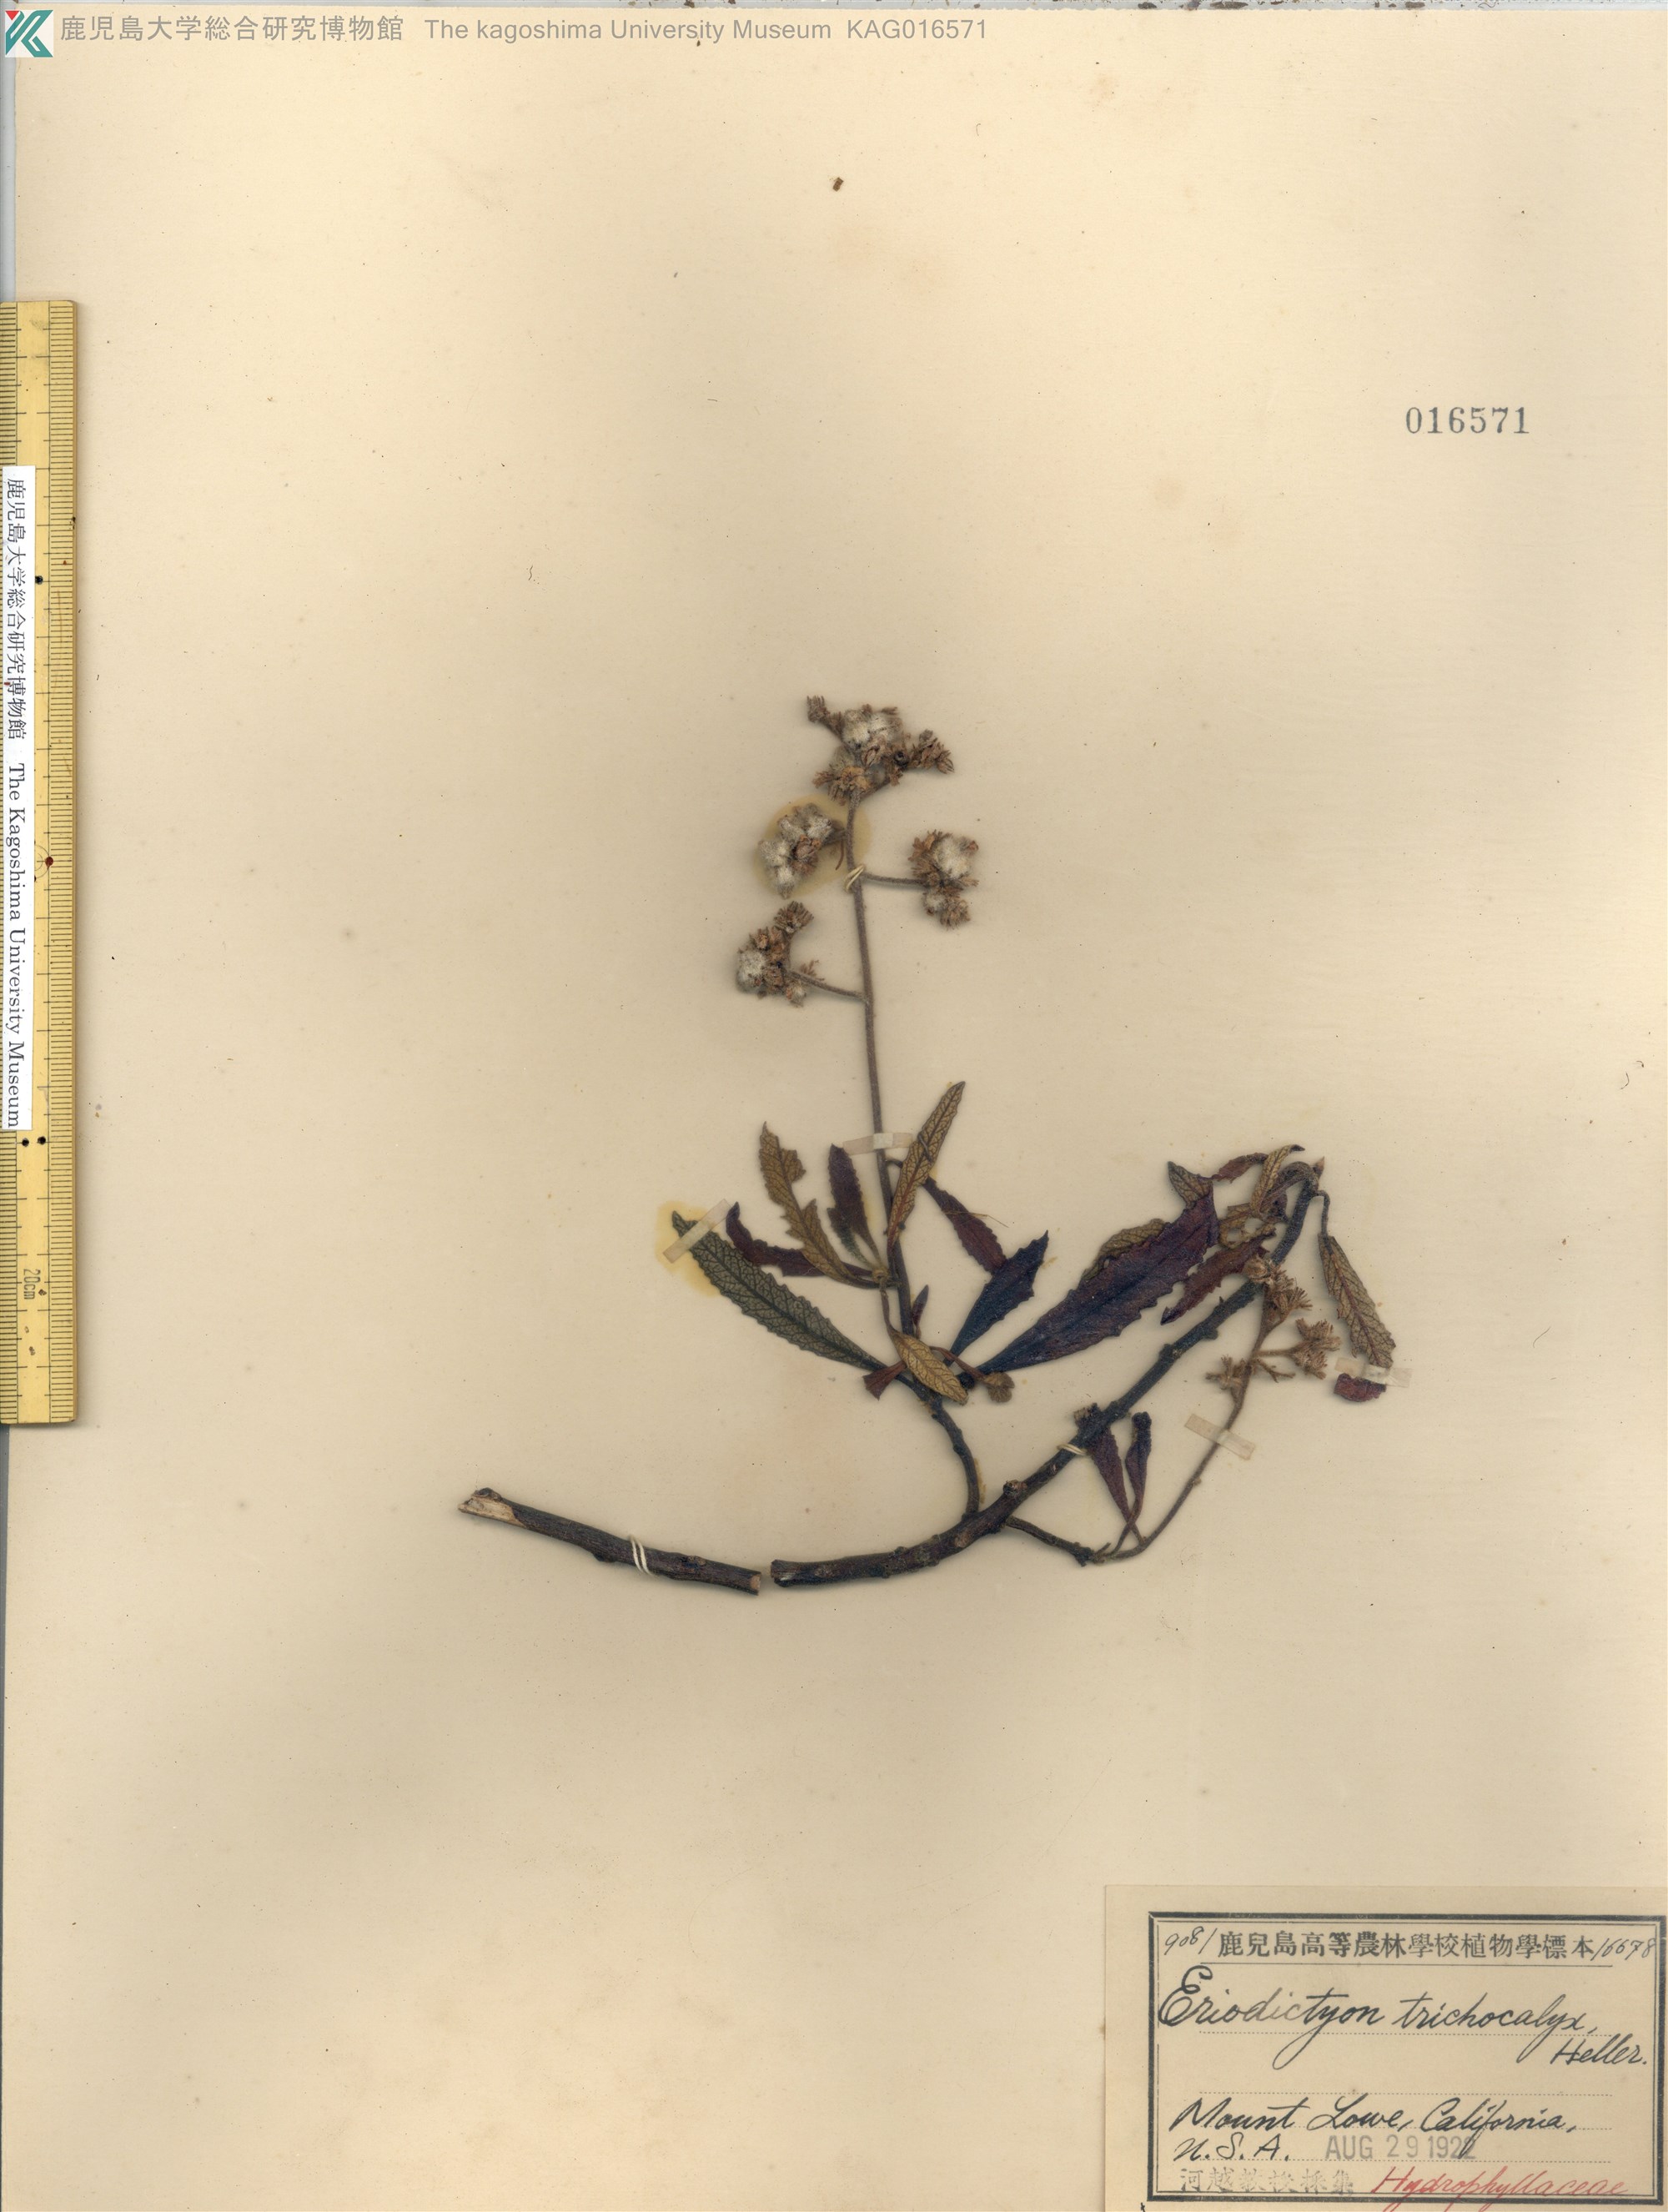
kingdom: Plantae
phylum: Tracheophyta
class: Magnoliopsida
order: Boraginales
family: Namaceae
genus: Eriodictyon
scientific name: Eriodictyon trichocalyx
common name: Hairy yerba-santa
